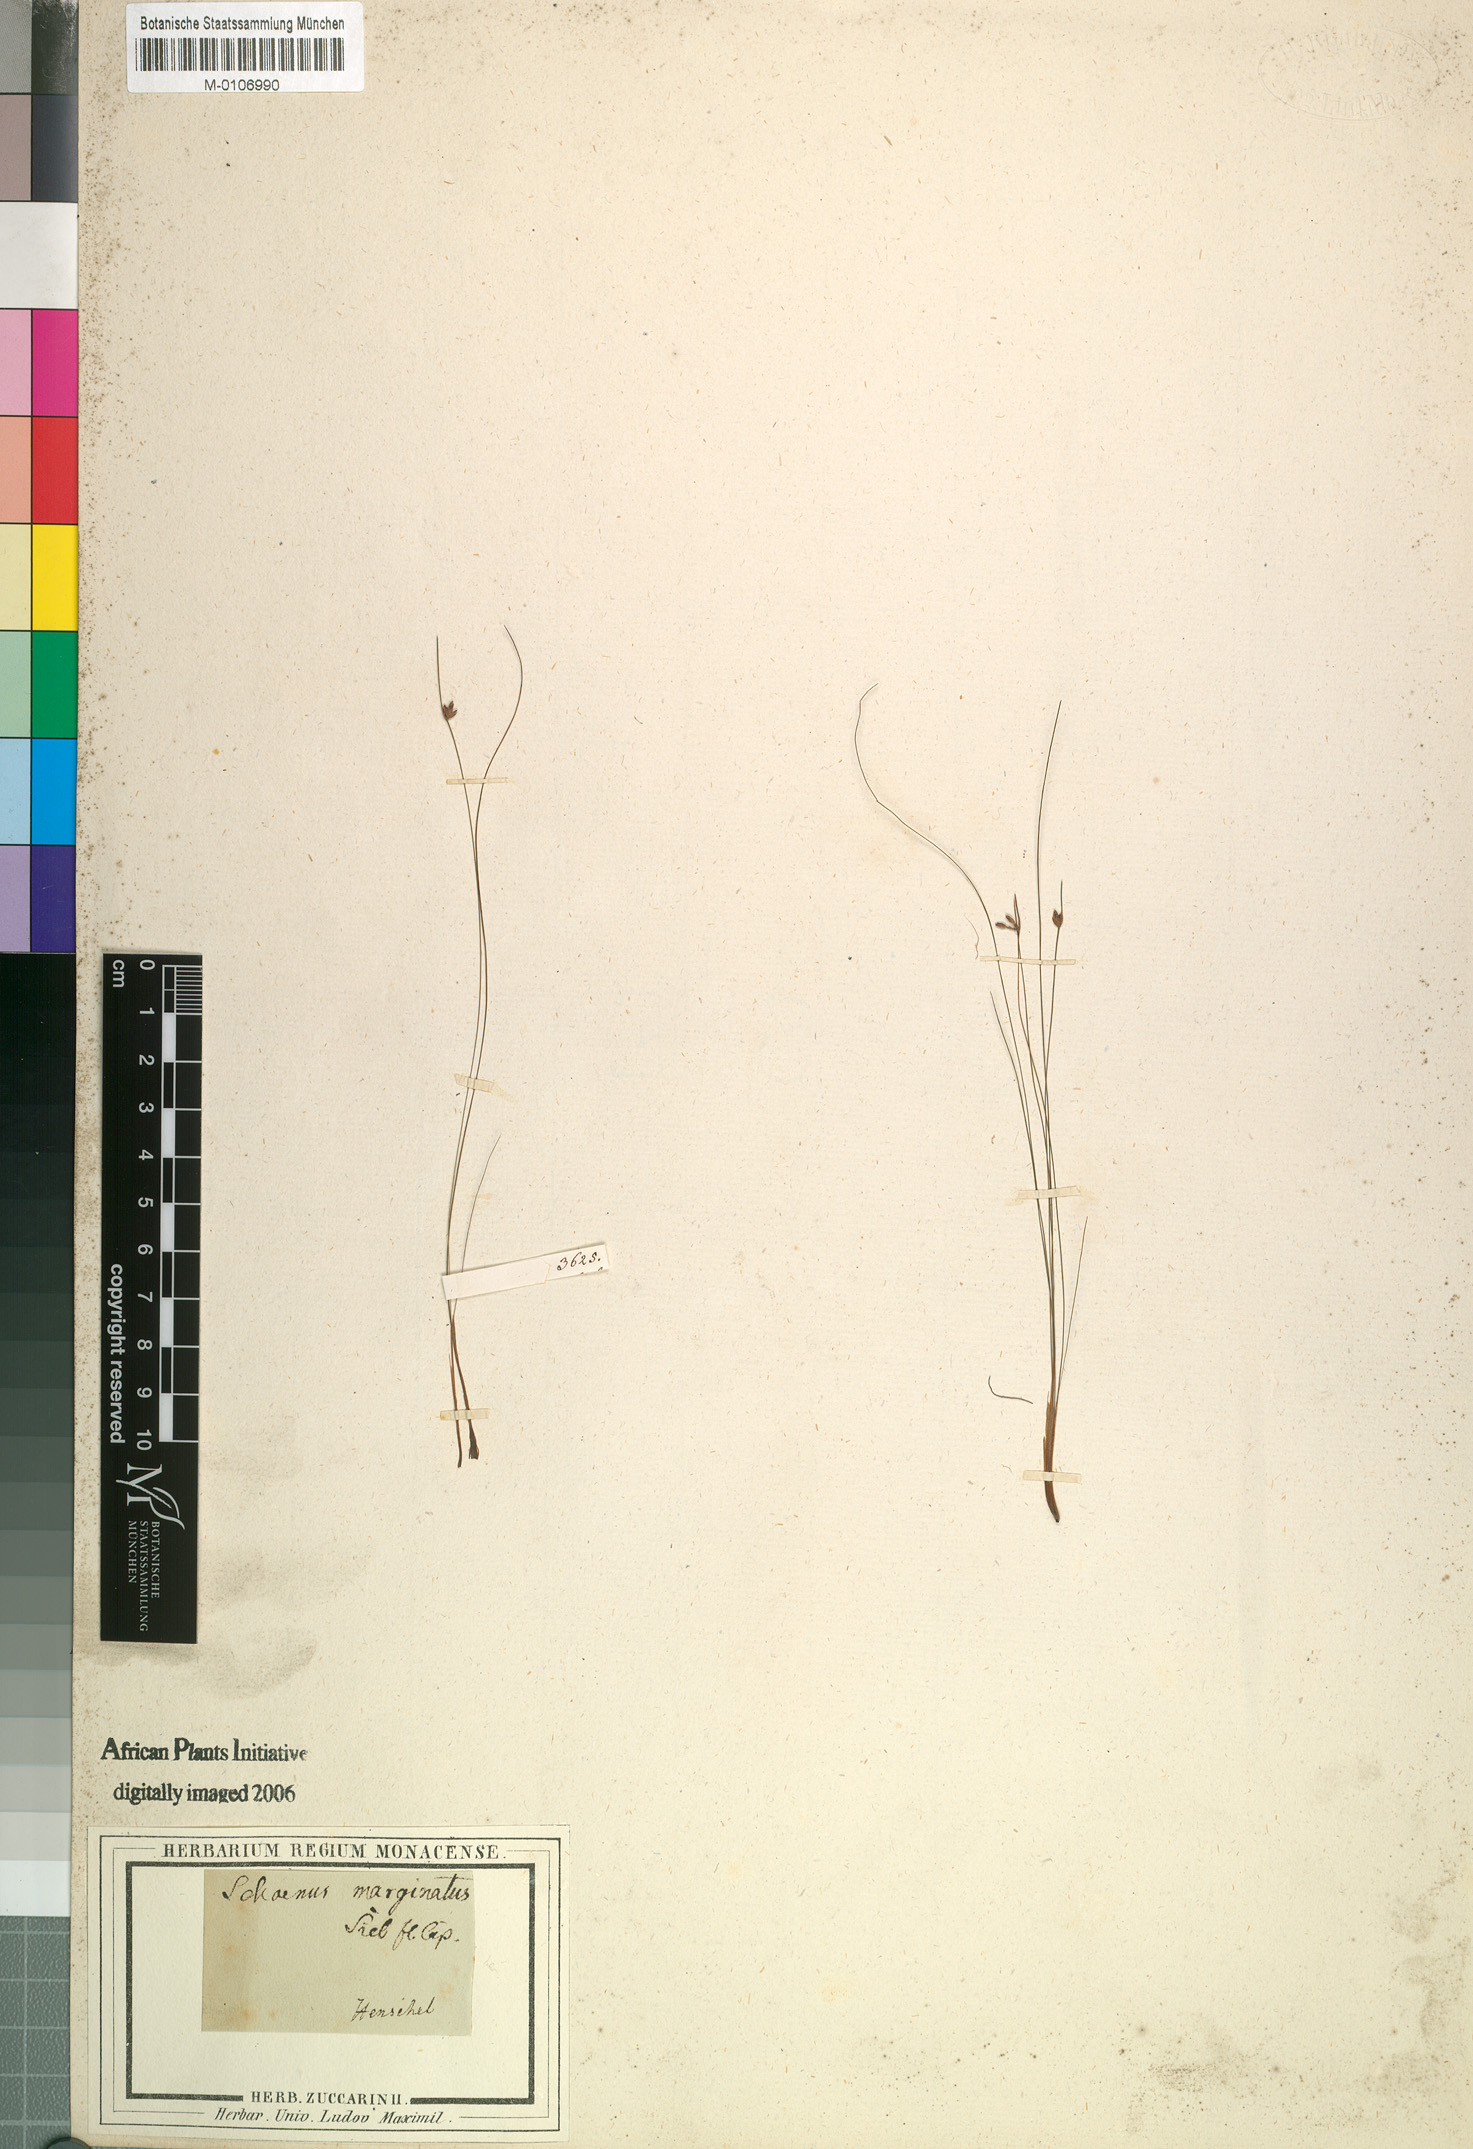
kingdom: Plantae
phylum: Tracheophyta
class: Liliopsida
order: Poales
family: Cyperaceae
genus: Ficinia
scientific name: Ficinia filiformis
